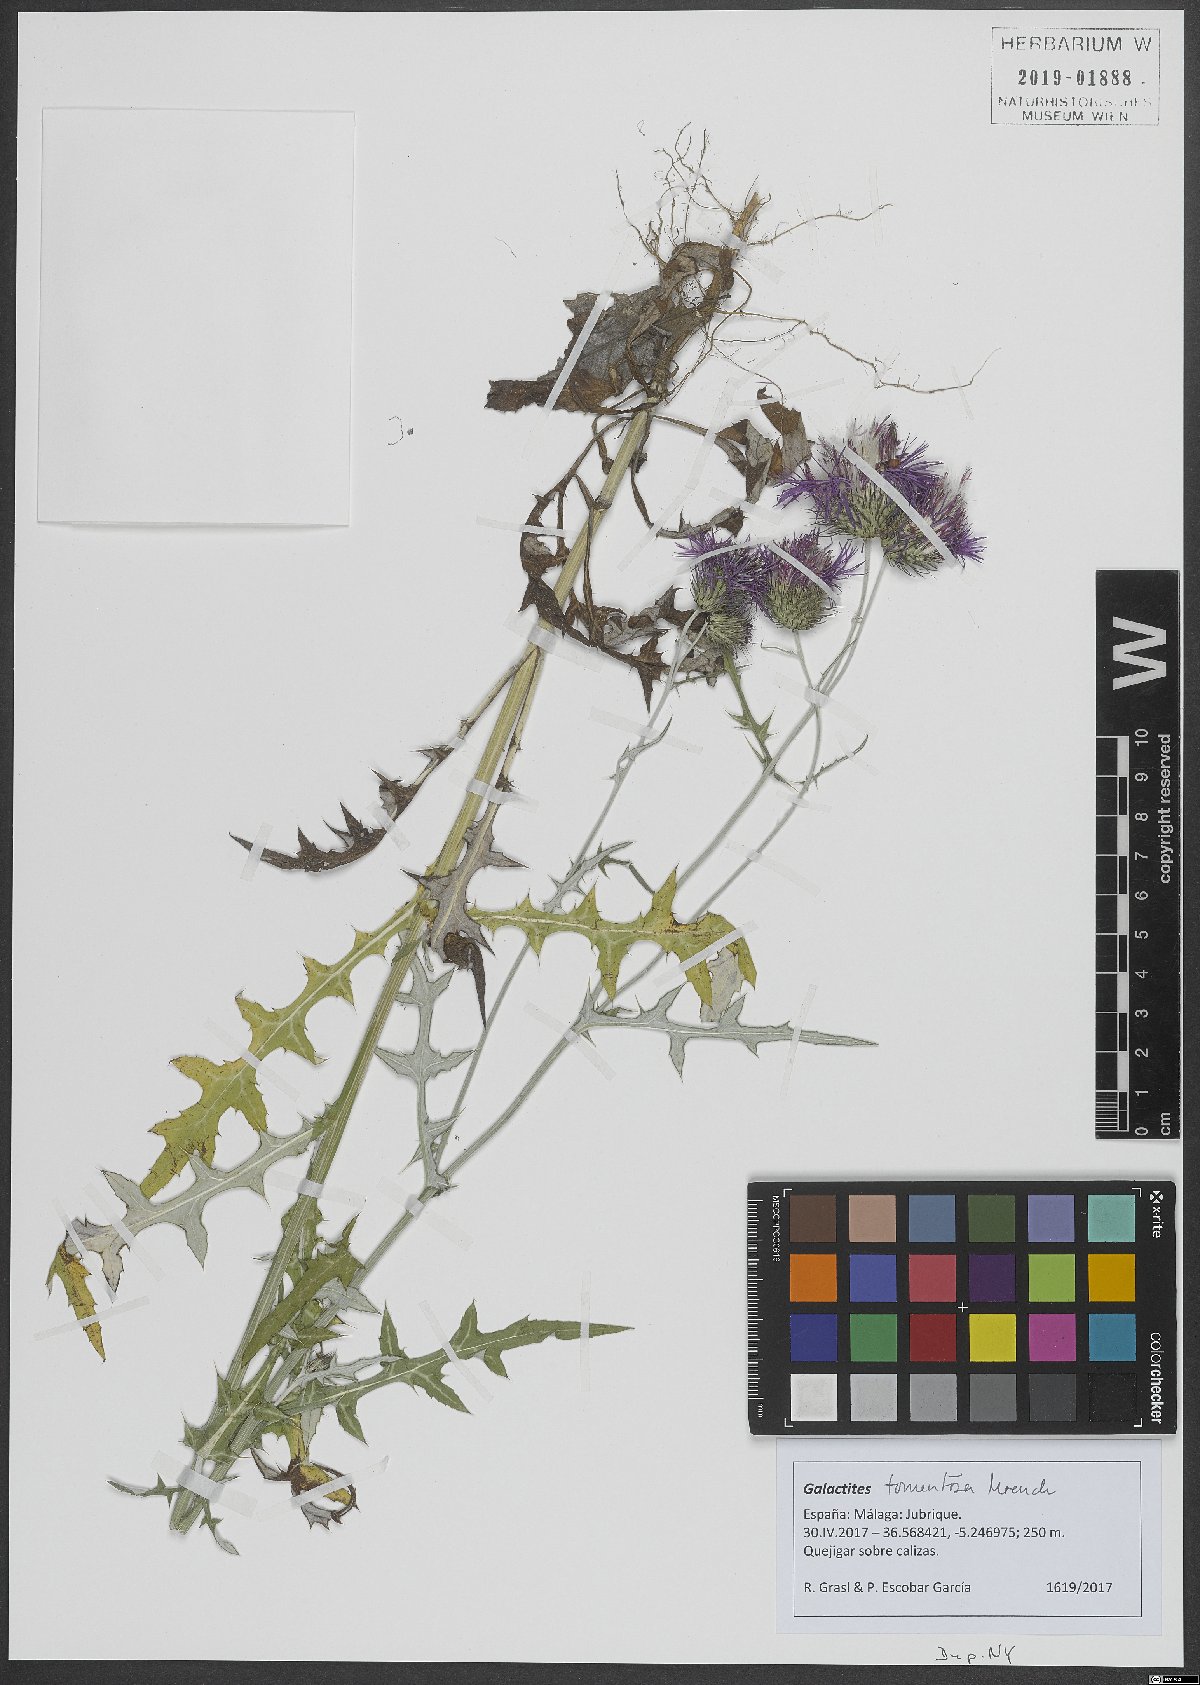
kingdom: Plantae
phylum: Tracheophyta
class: Magnoliopsida
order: Asterales
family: Asteraceae
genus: Galactites
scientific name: Galactites tomentosa
